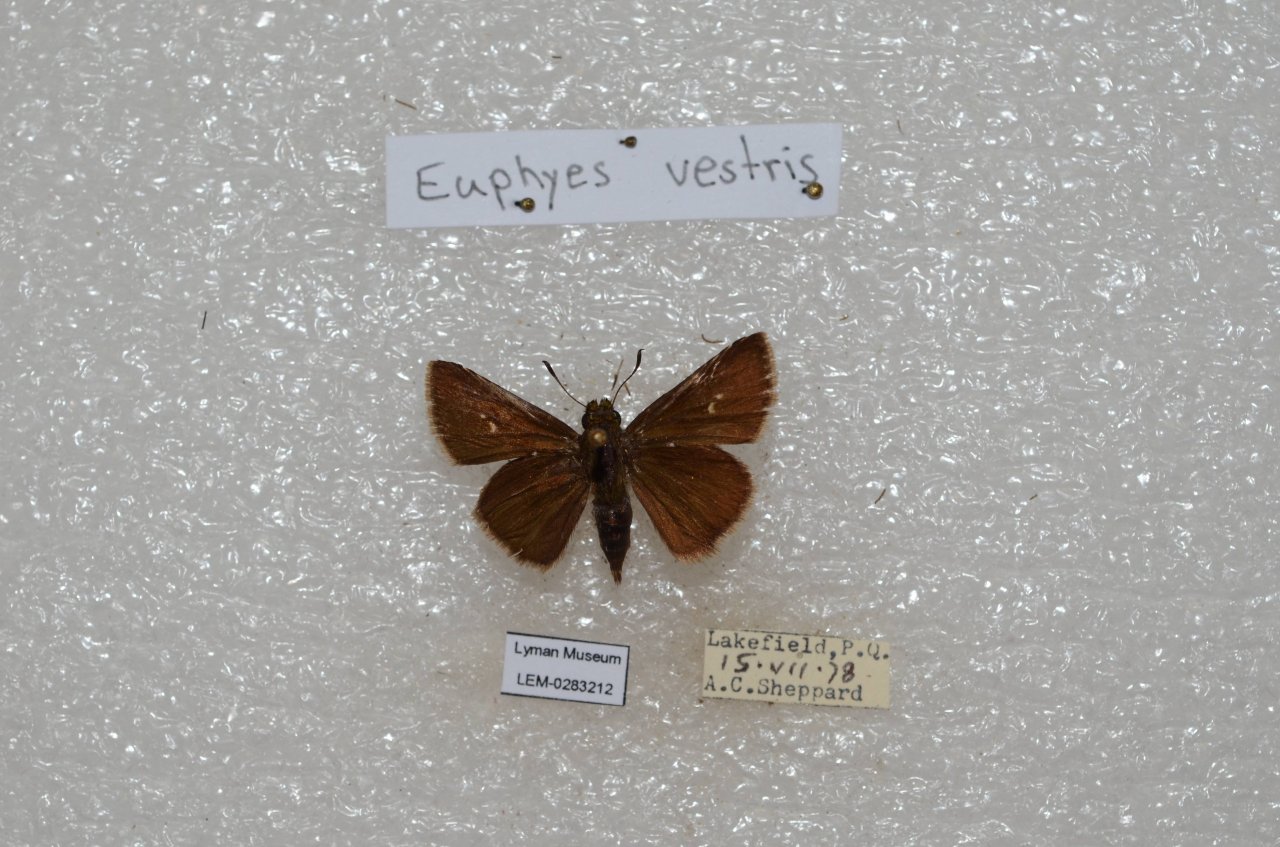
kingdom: Animalia
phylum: Arthropoda
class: Insecta
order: Lepidoptera
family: Hesperiidae
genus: Euphyes
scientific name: Euphyes vestris
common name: Dun Skipper
